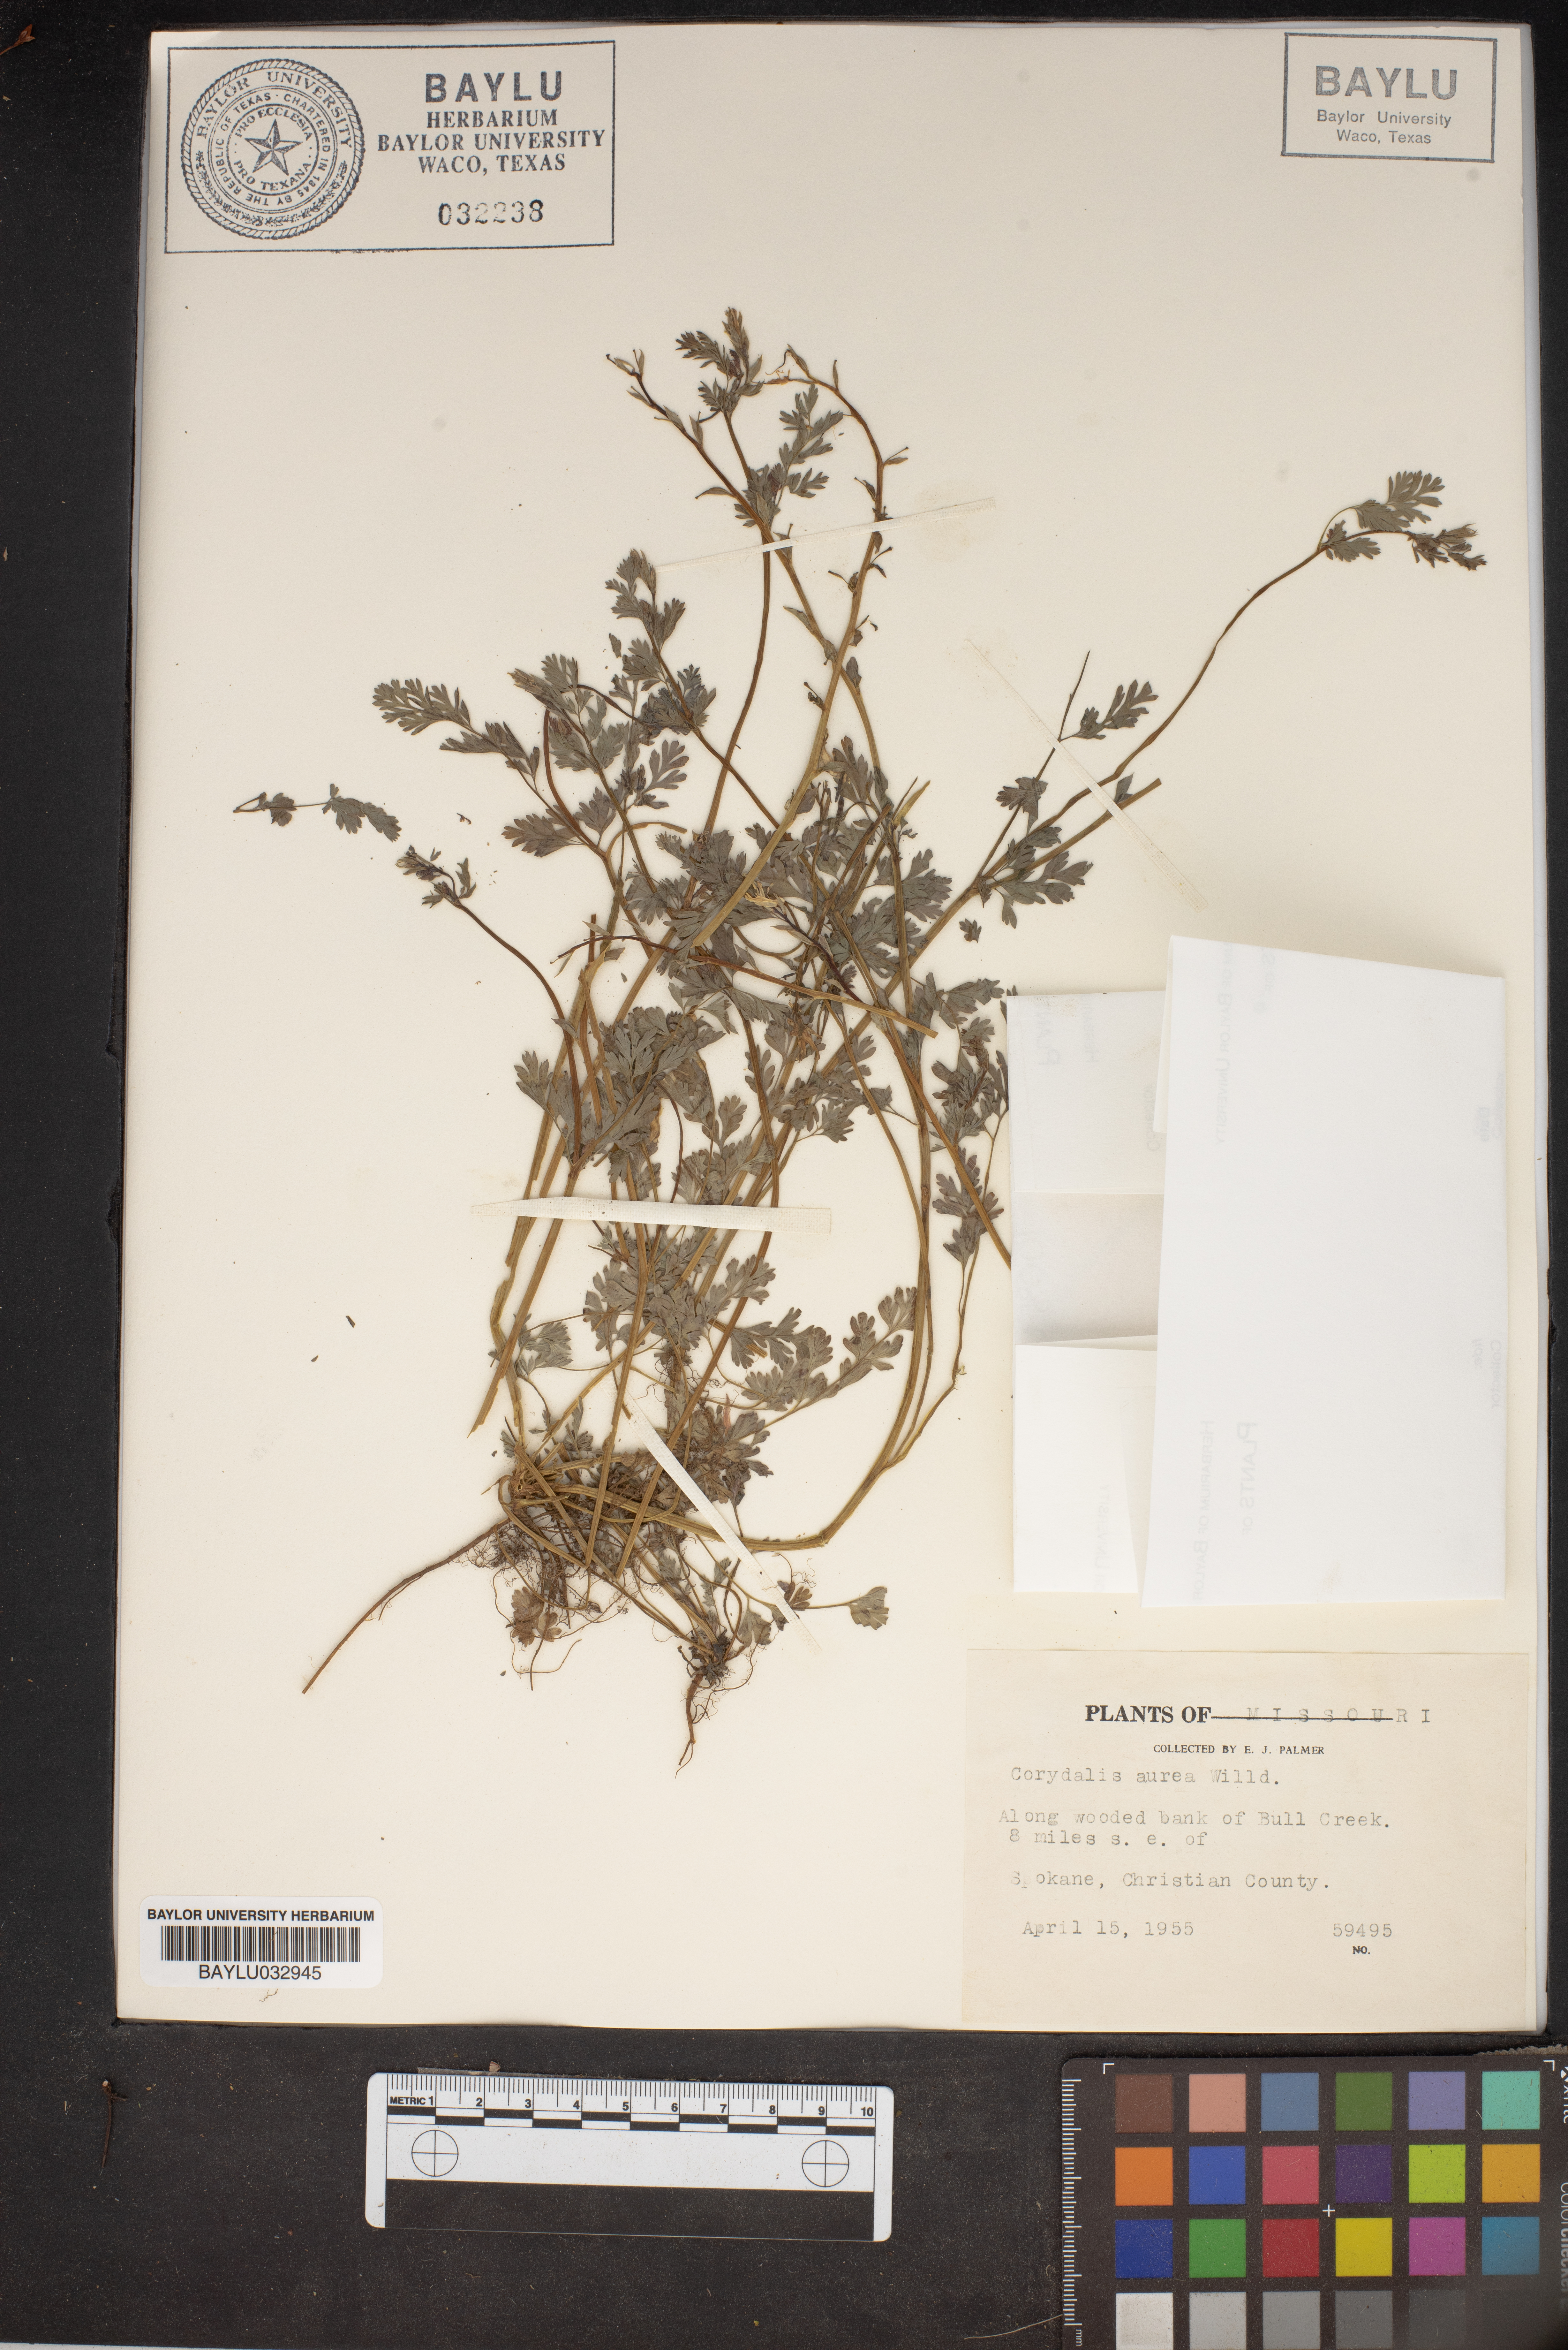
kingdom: Plantae
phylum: Tracheophyta
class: Magnoliopsida
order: Ranunculales
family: Papaveraceae
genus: Corydalis
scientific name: Corydalis aurea
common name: Golden corydalis
